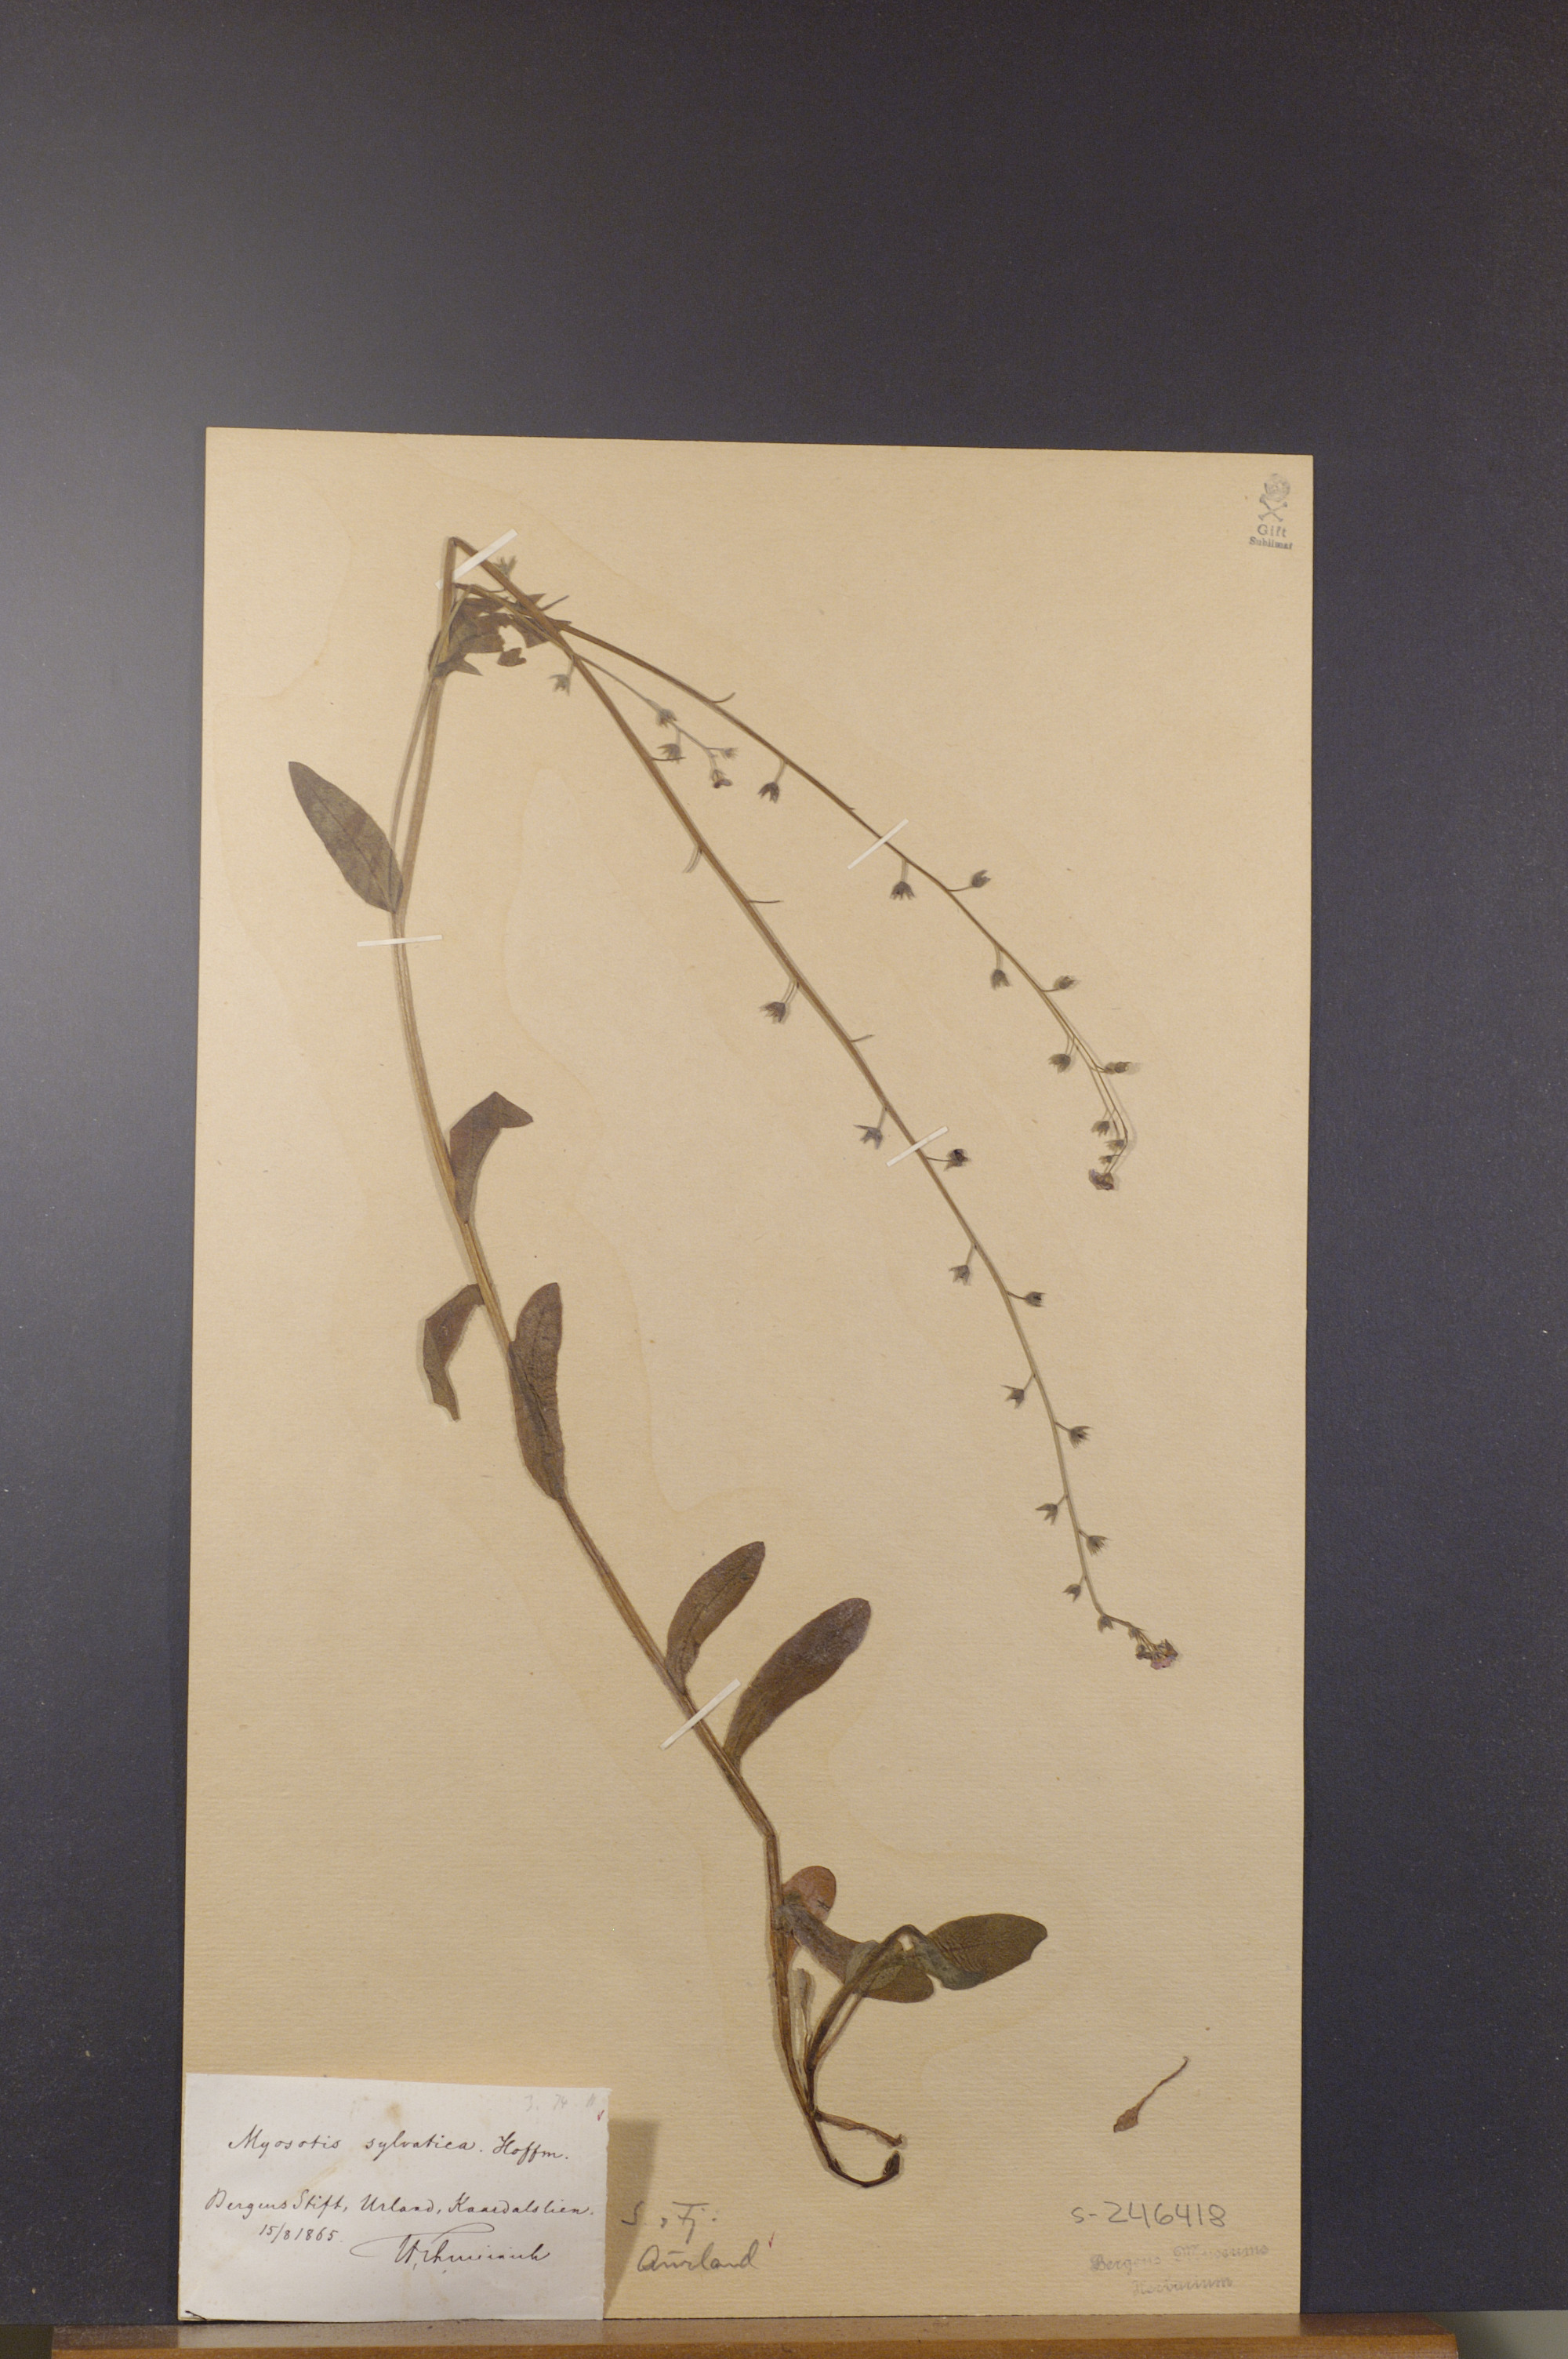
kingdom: Plantae
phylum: Tracheophyta
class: Magnoliopsida
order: Boraginales
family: Boraginaceae
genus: Myosotis
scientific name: Myosotis decumbens
